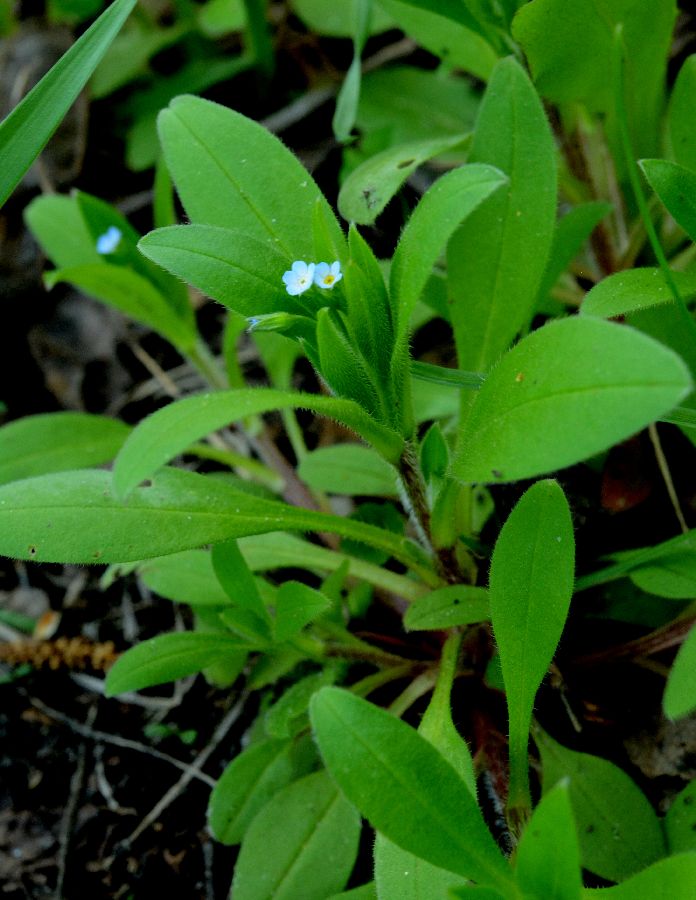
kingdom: Plantae
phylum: Tracheophyta
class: Magnoliopsida
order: Boraginales
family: Boraginaceae
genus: Myosotis
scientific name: Myosotis sparsiflora
